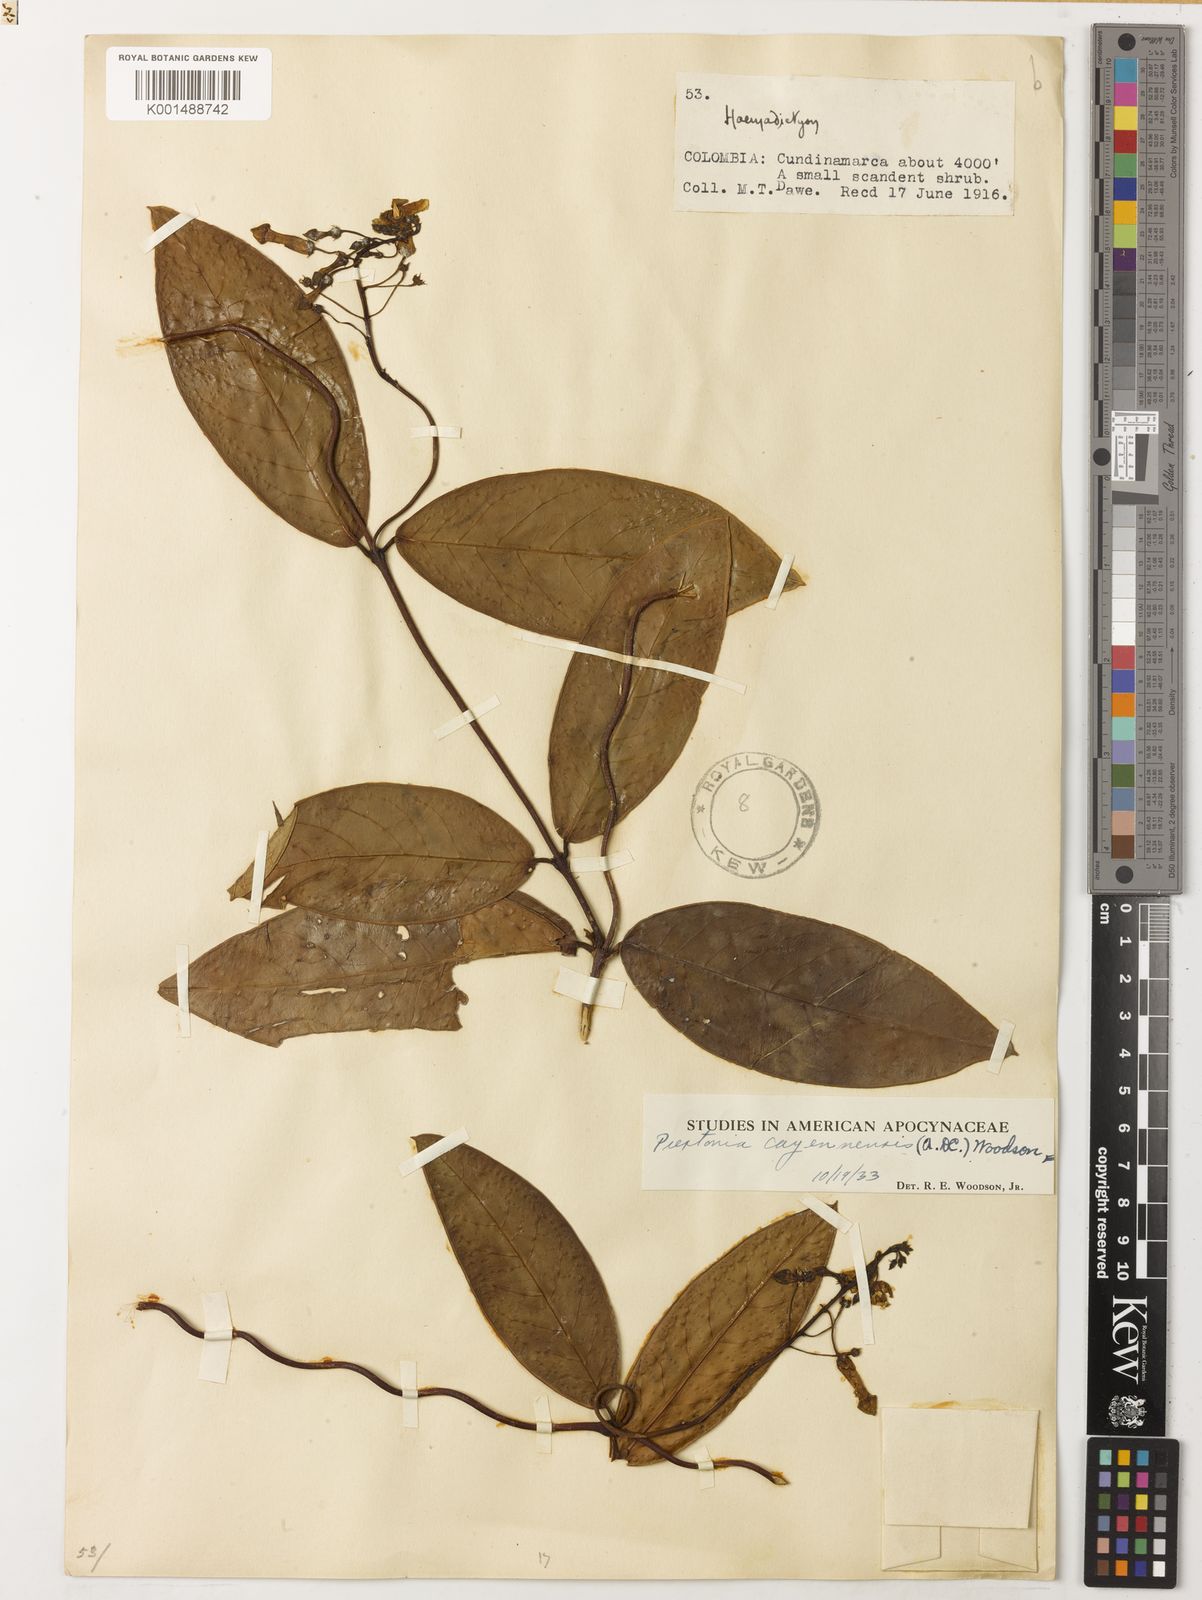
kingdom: Plantae
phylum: Tracheophyta
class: Magnoliopsida
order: Gentianales
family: Apocynaceae
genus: Prestonia
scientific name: Prestonia cayennensis
